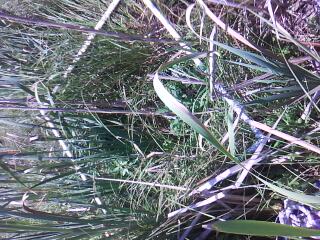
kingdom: Plantae
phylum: Tracheophyta
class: Magnoliopsida
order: Gentianales
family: Rubiaceae
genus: Galium
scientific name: Galium
